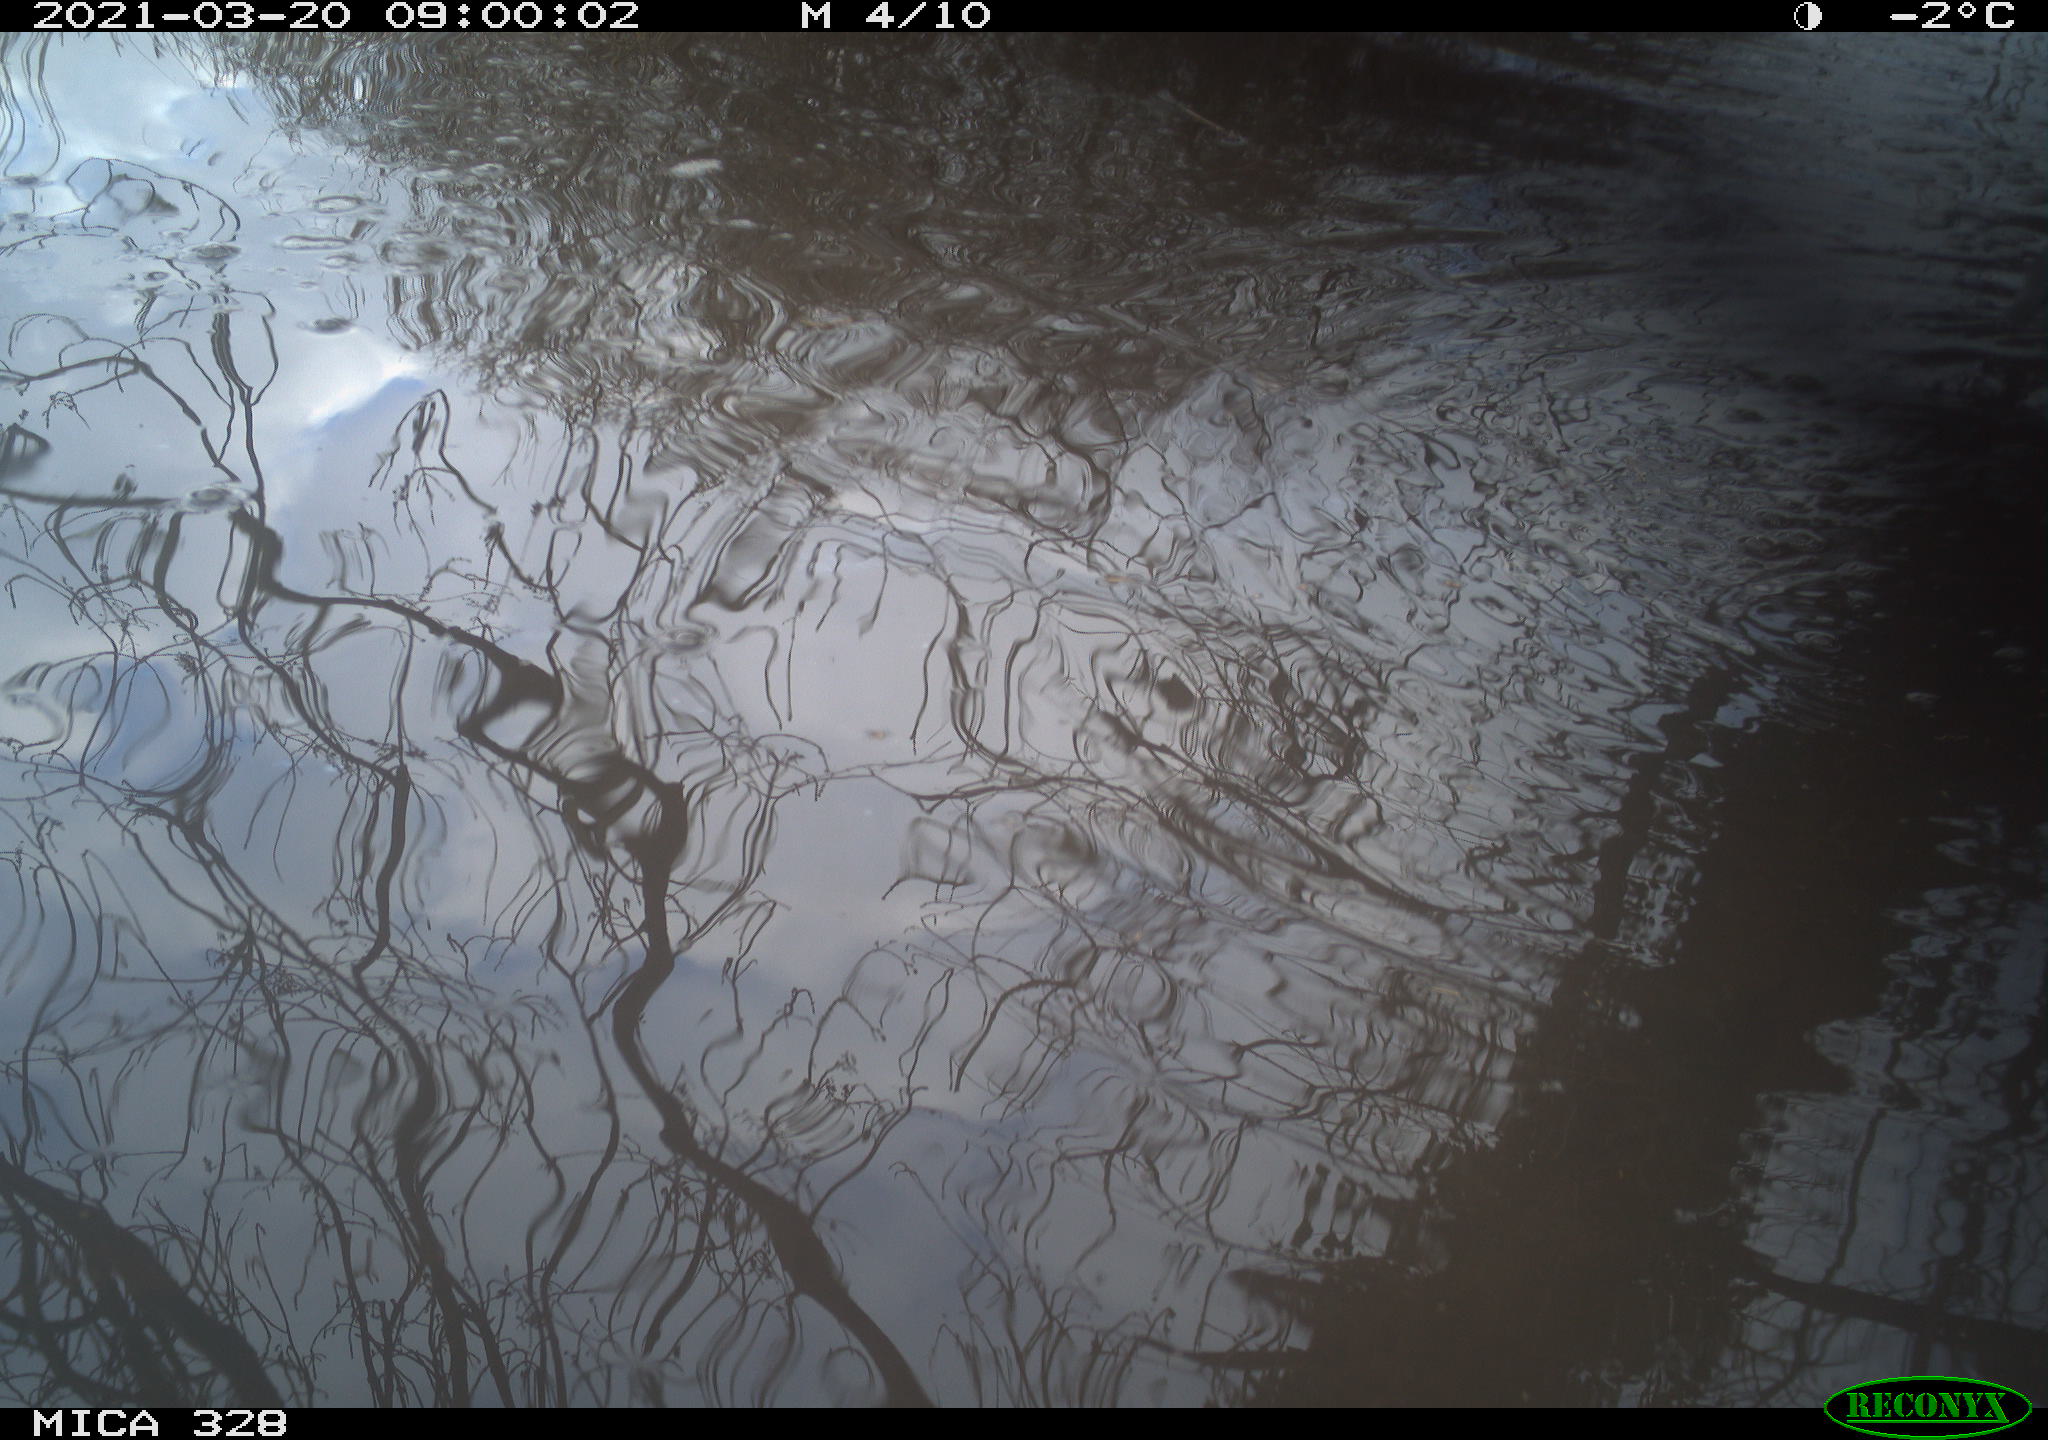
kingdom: Animalia
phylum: Chordata
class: Aves
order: Anseriformes
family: Anatidae
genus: Anas
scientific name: Anas platyrhynchos
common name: Mallard
